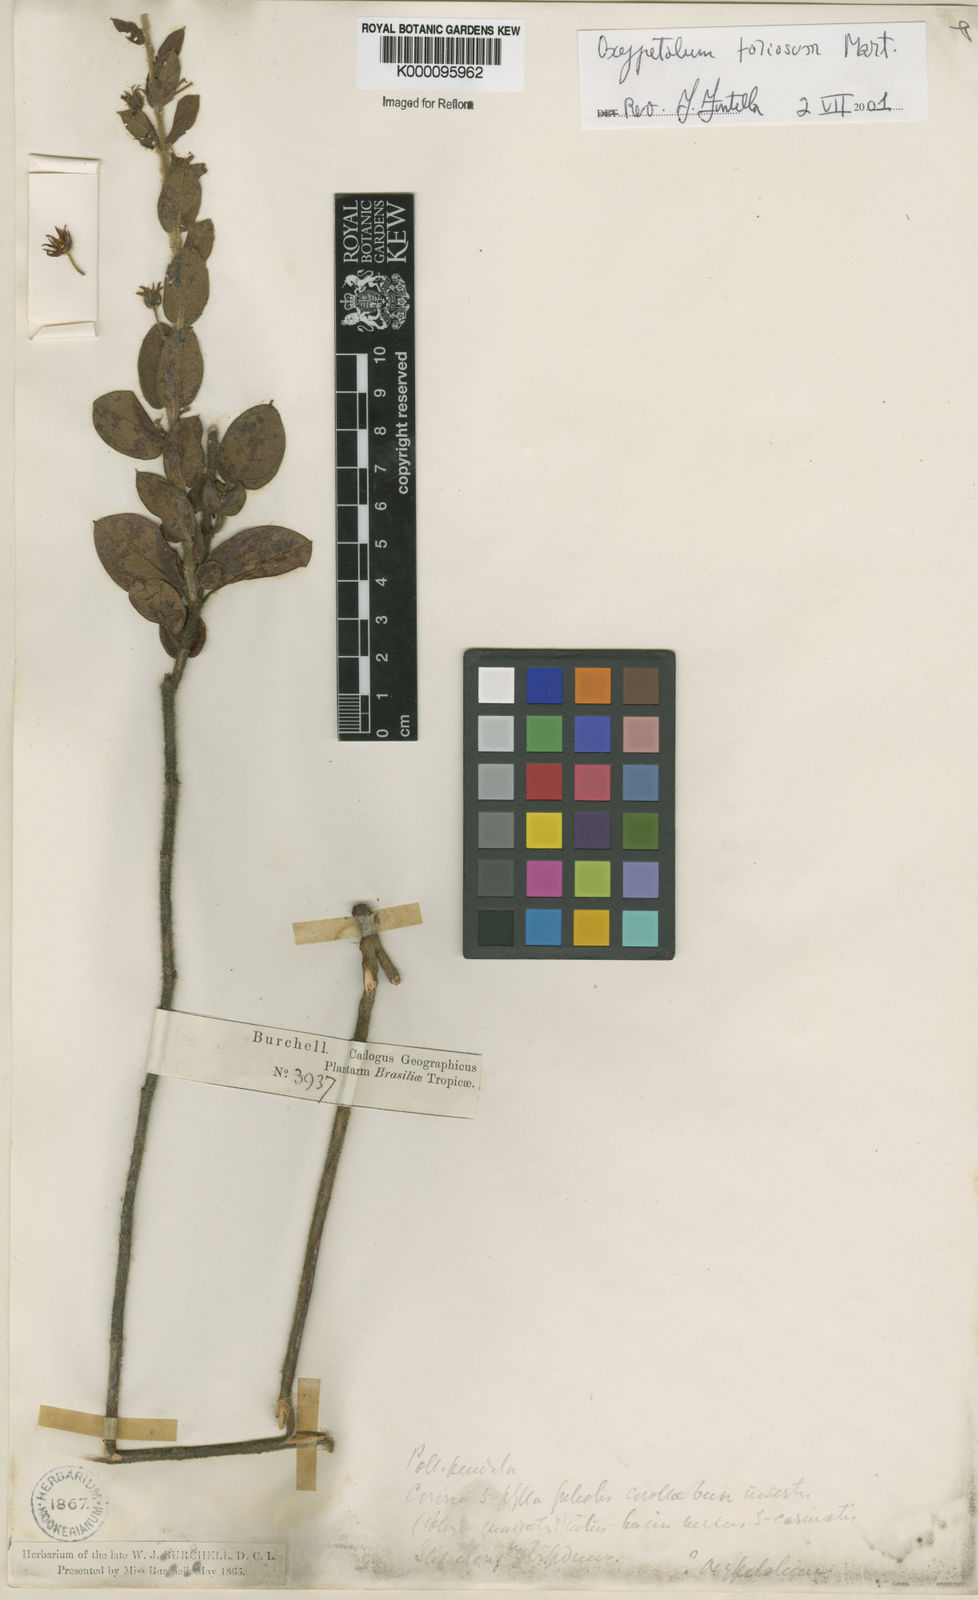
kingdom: Plantae
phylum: Tracheophyta
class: Magnoliopsida
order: Gentianales
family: Apocynaceae
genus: Oxypetalum
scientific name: Oxypetalum foliosum
